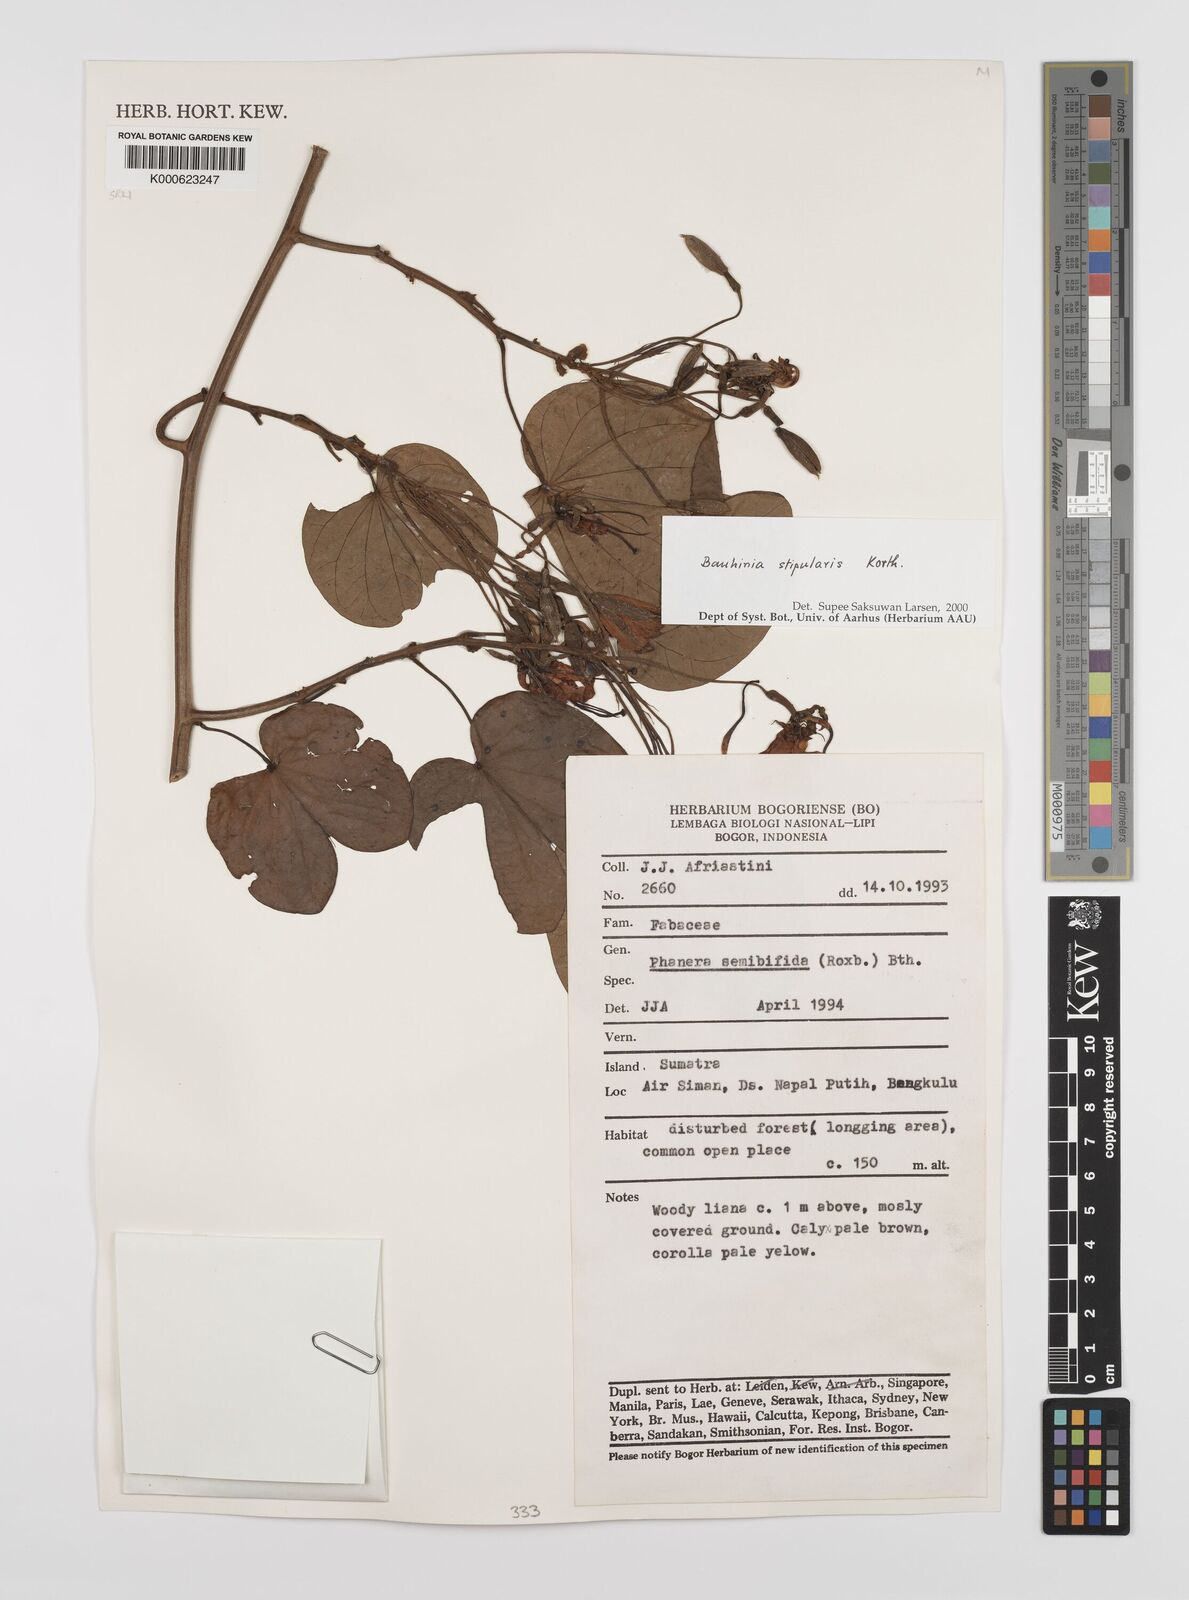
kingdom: Plantae
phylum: Tracheophyta
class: Magnoliopsida
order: Fabales
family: Fabaceae
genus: Phanera
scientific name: Phanera stipularis
